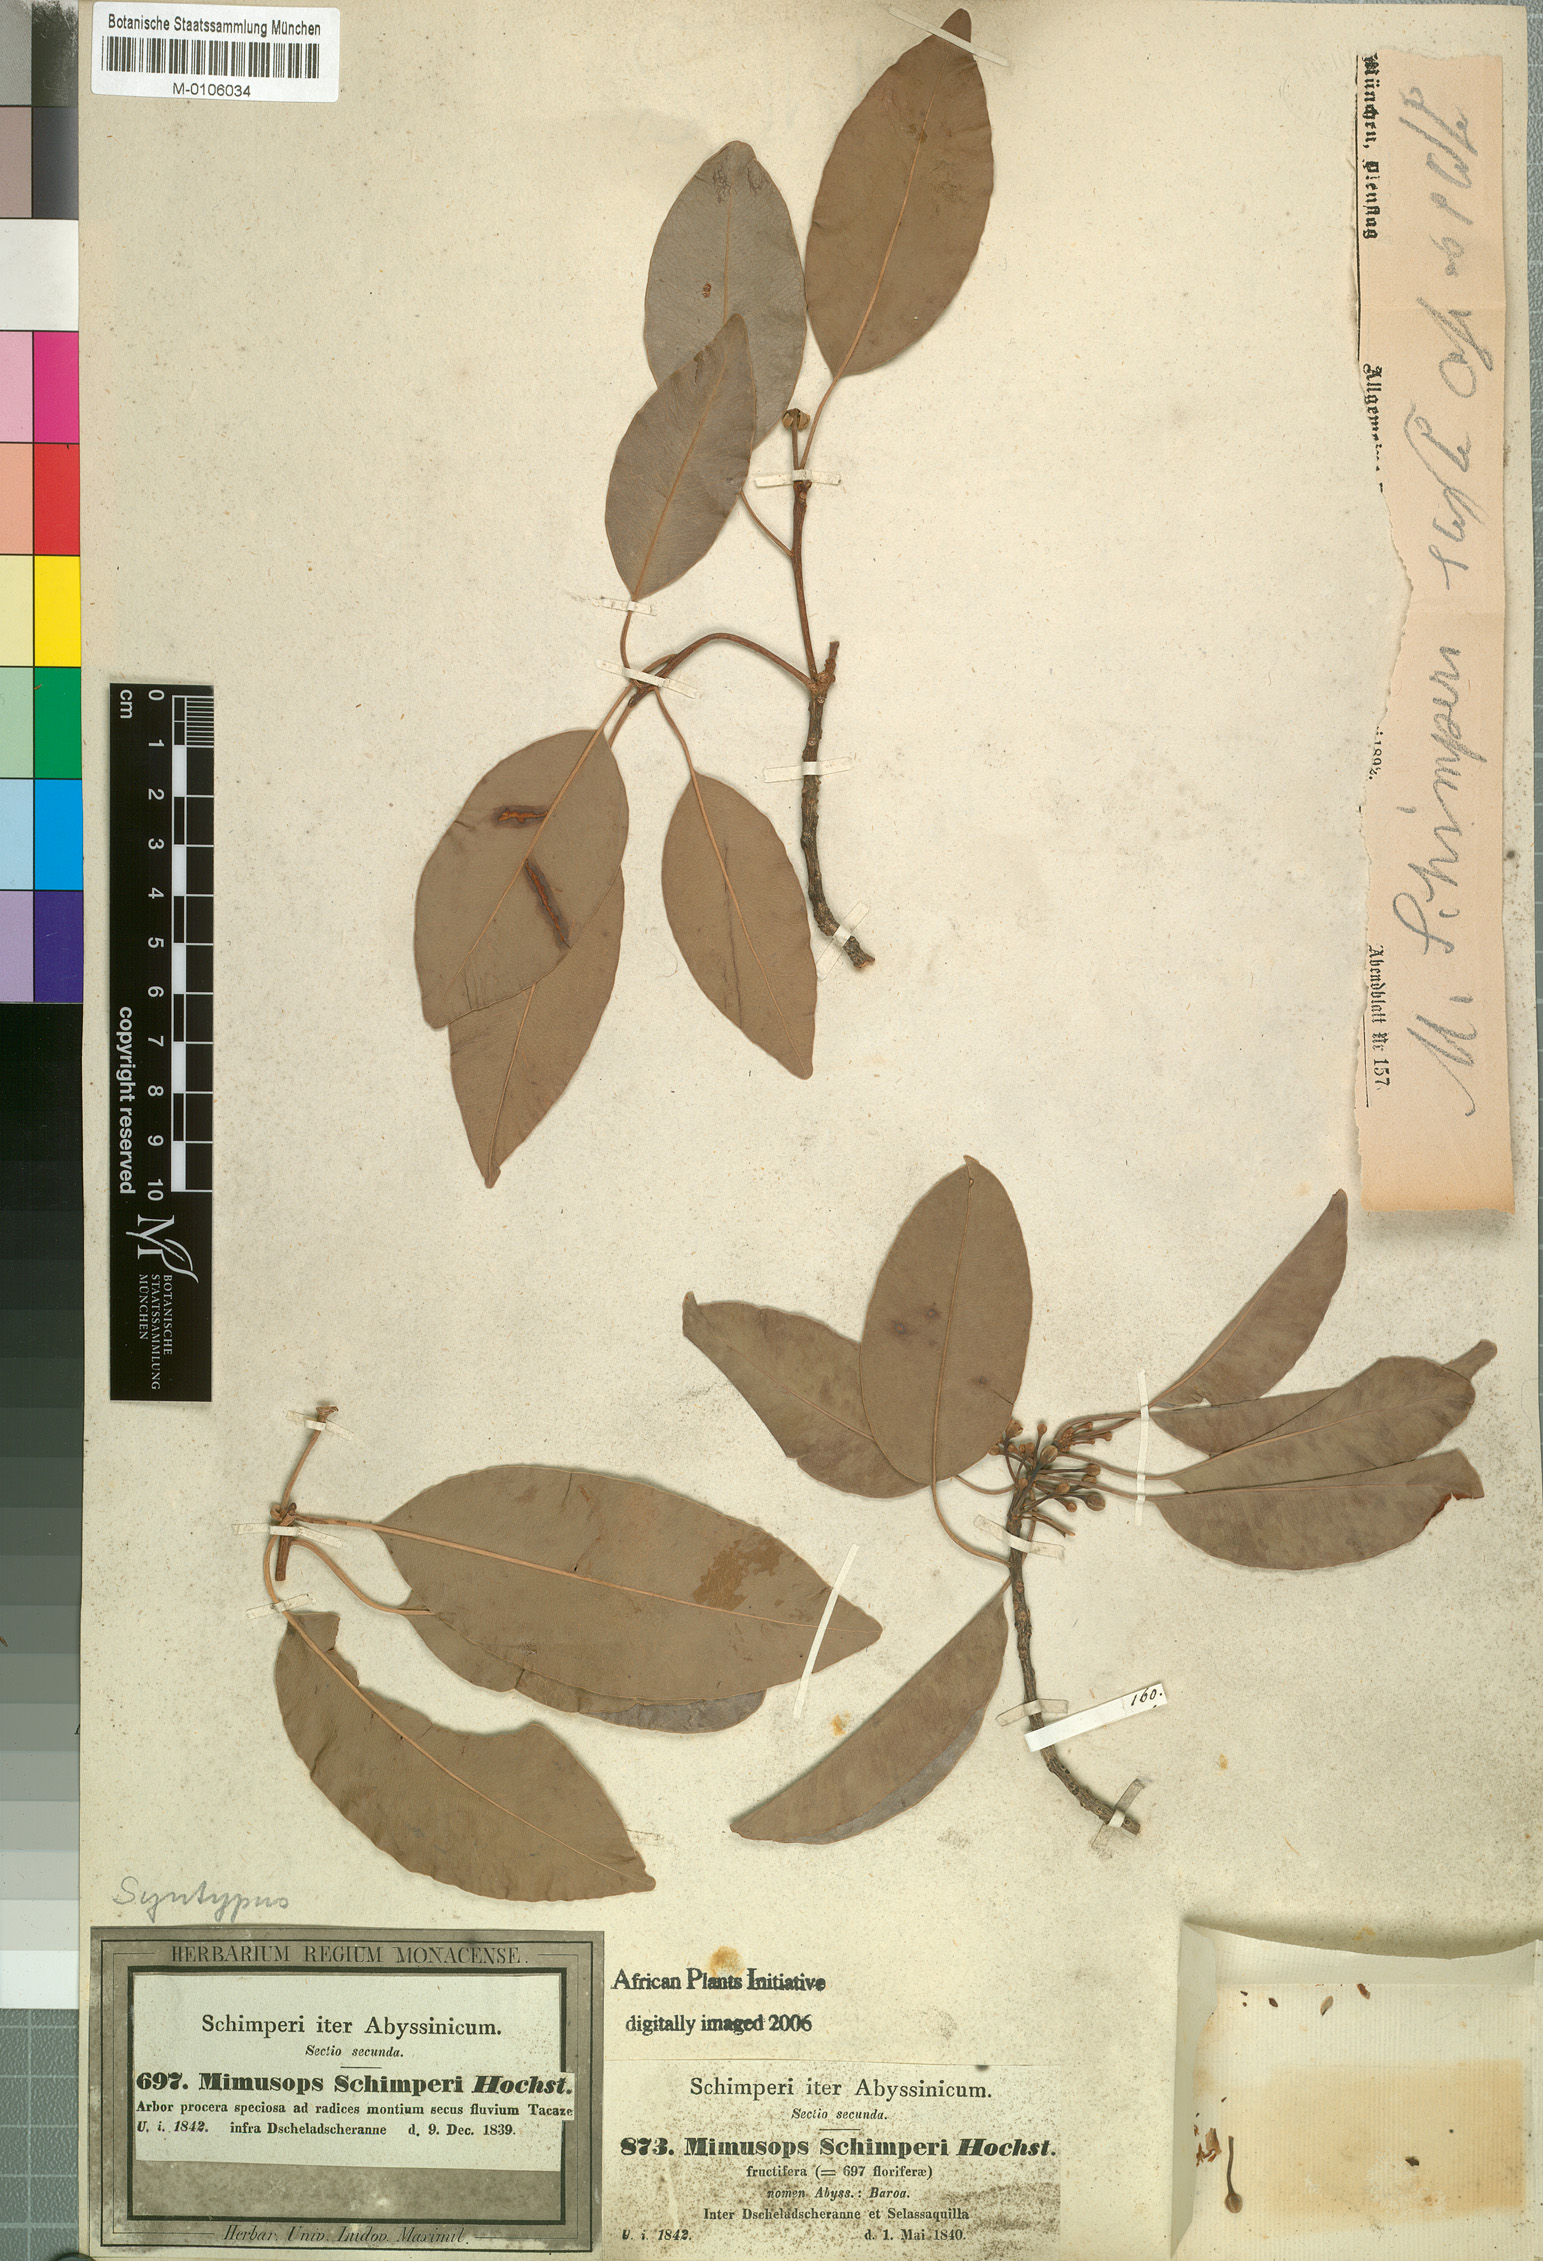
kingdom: Plantae
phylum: Tracheophyta
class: Magnoliopsida
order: Ericales
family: Sapotaceae
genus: Mimusops
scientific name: Mimusops laurifolia
